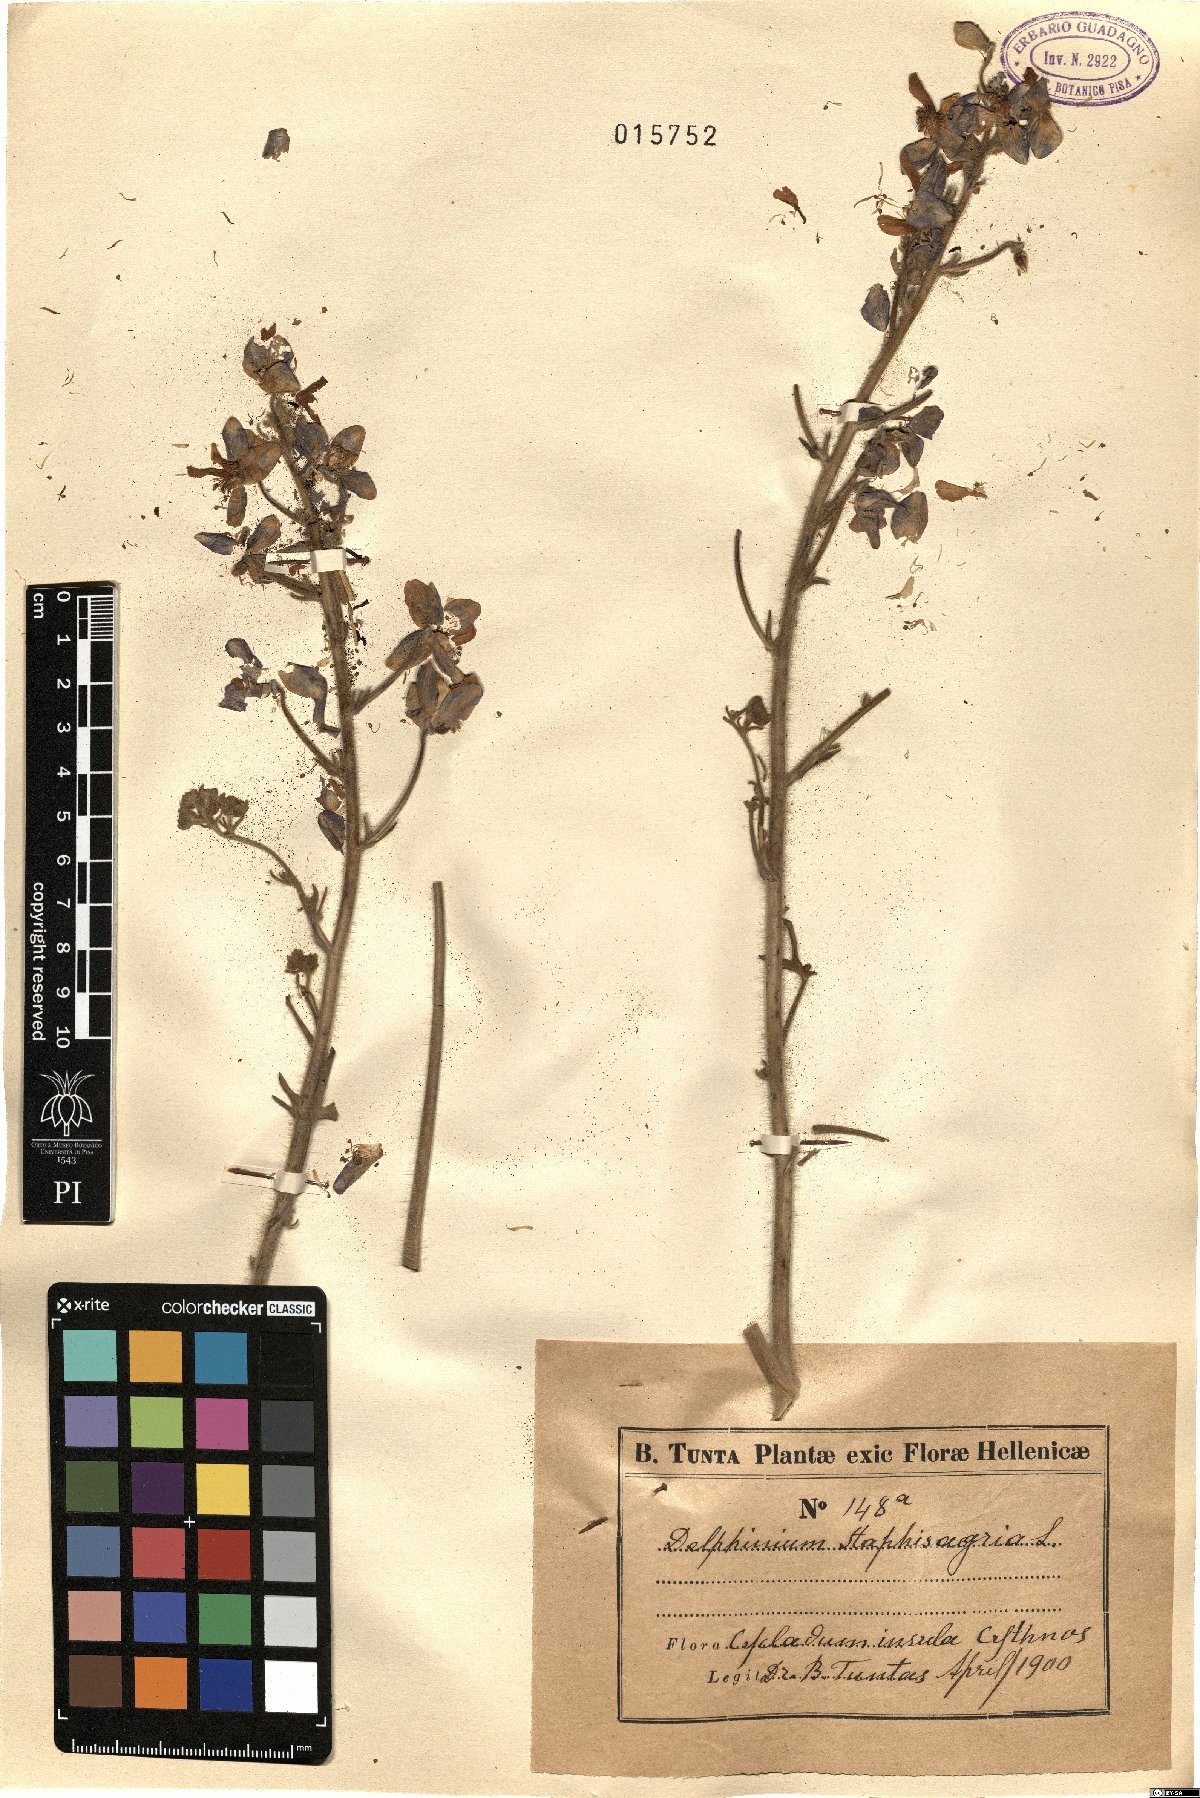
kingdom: Plantae
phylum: Tracheophyta
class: Magnoliopsida
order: Ranunculales
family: Ranunculaceae
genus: Staphisagria
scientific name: Staphisagria macrosperma
